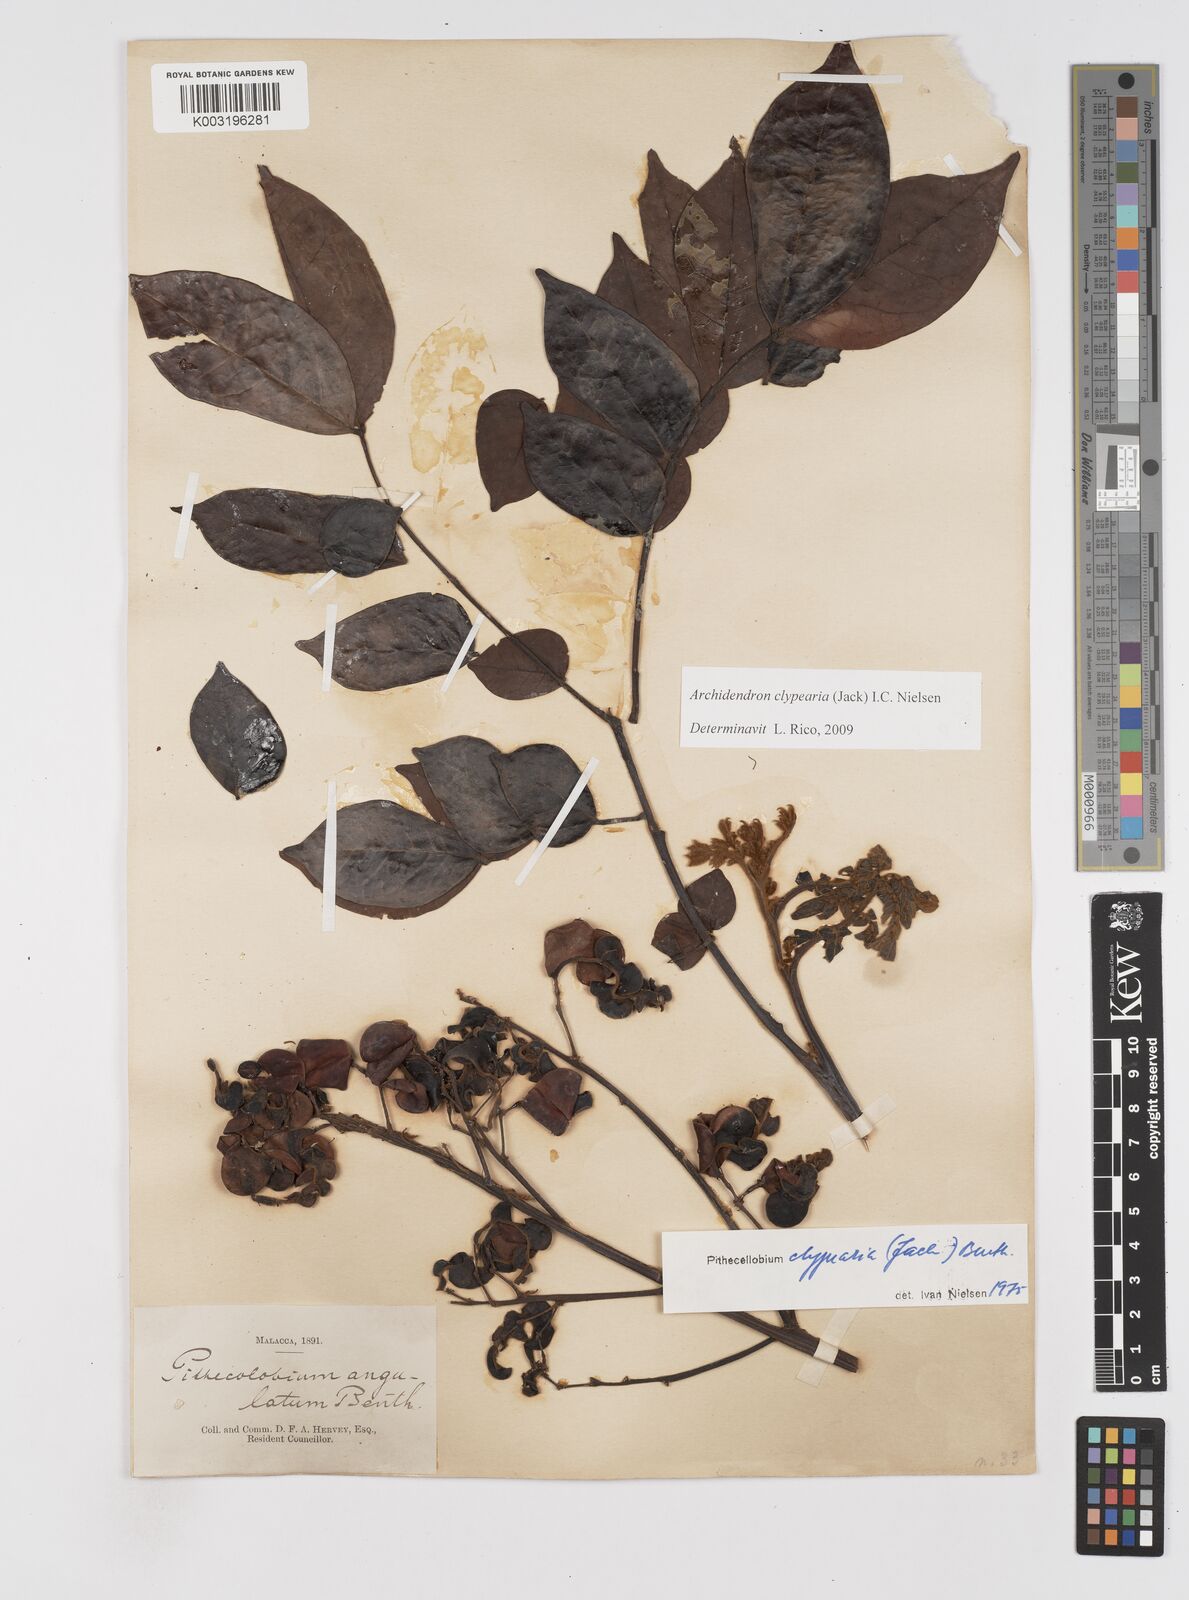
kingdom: Plantae
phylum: Tracheophyta
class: Magnoliopsida
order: Fabales
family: Fabaceae
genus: Archidendron
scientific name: Archidendron clypearia
